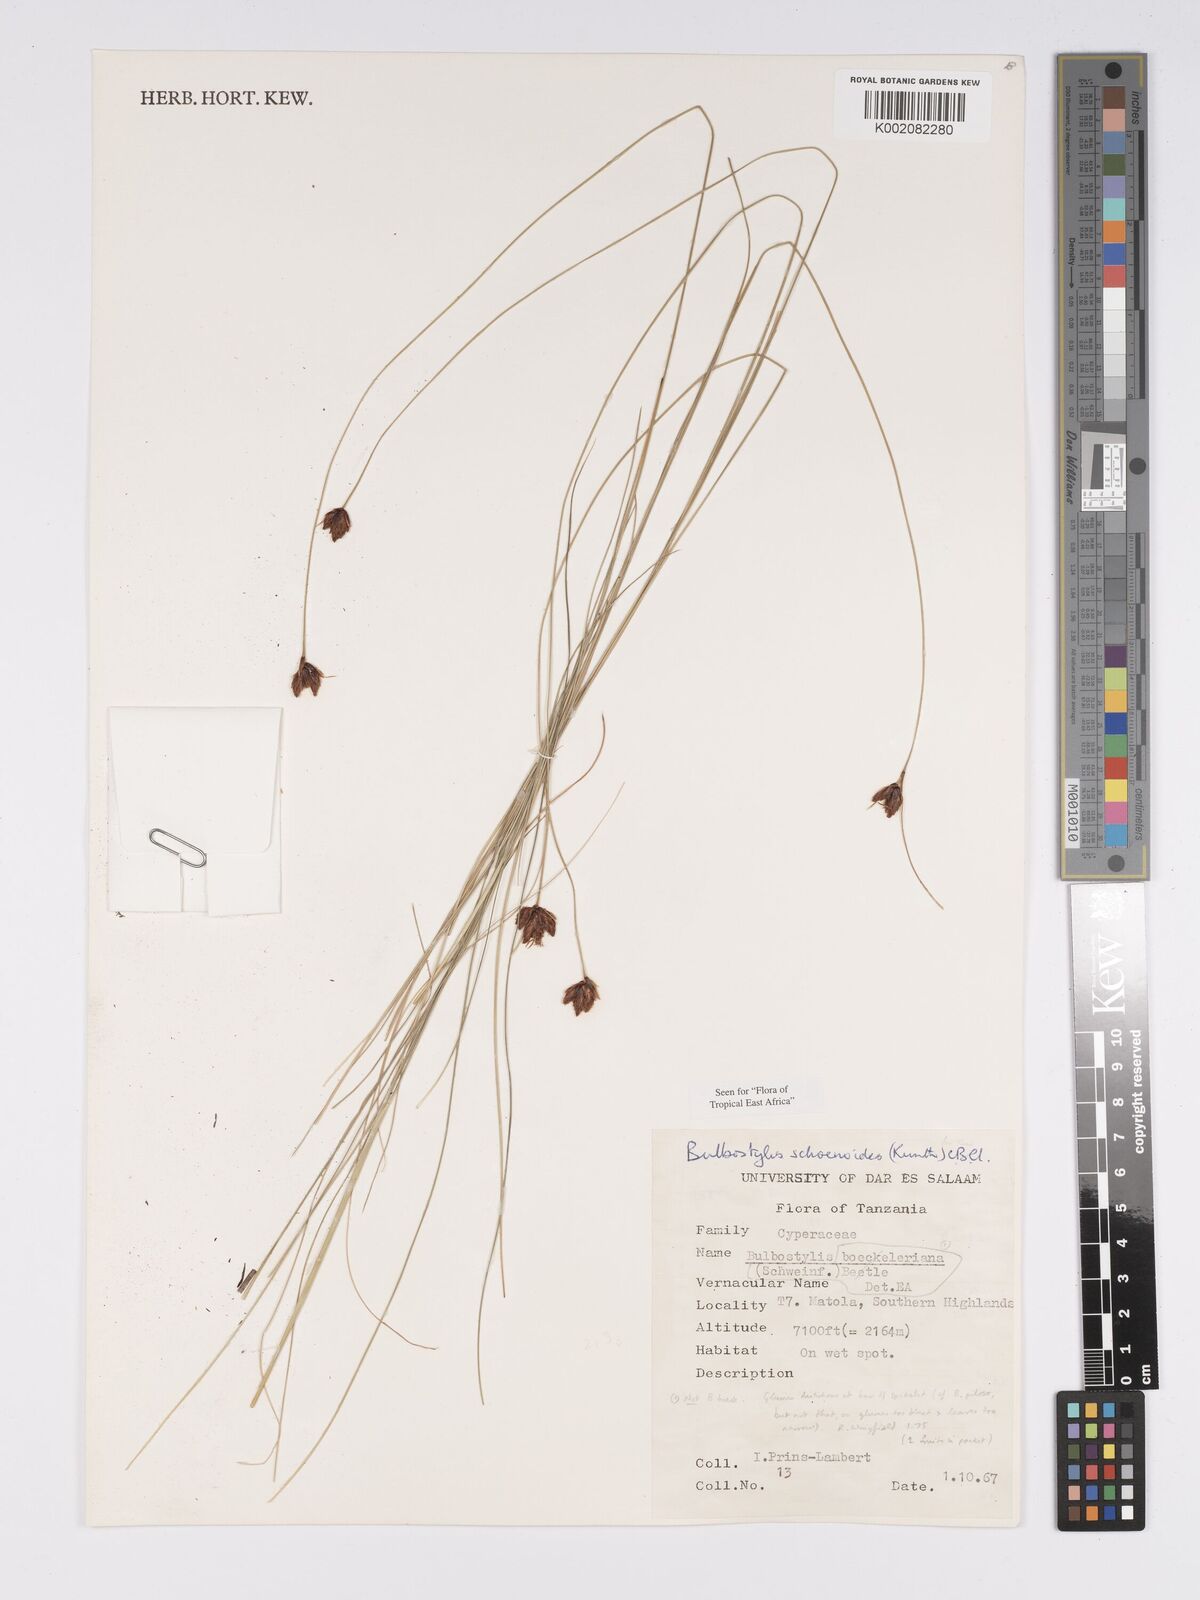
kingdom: Plantae
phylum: Tracheophyta
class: Liliopsida
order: Poales
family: Cyperaceae
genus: Bulbostylis
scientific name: Bulbostylis schoenoides
